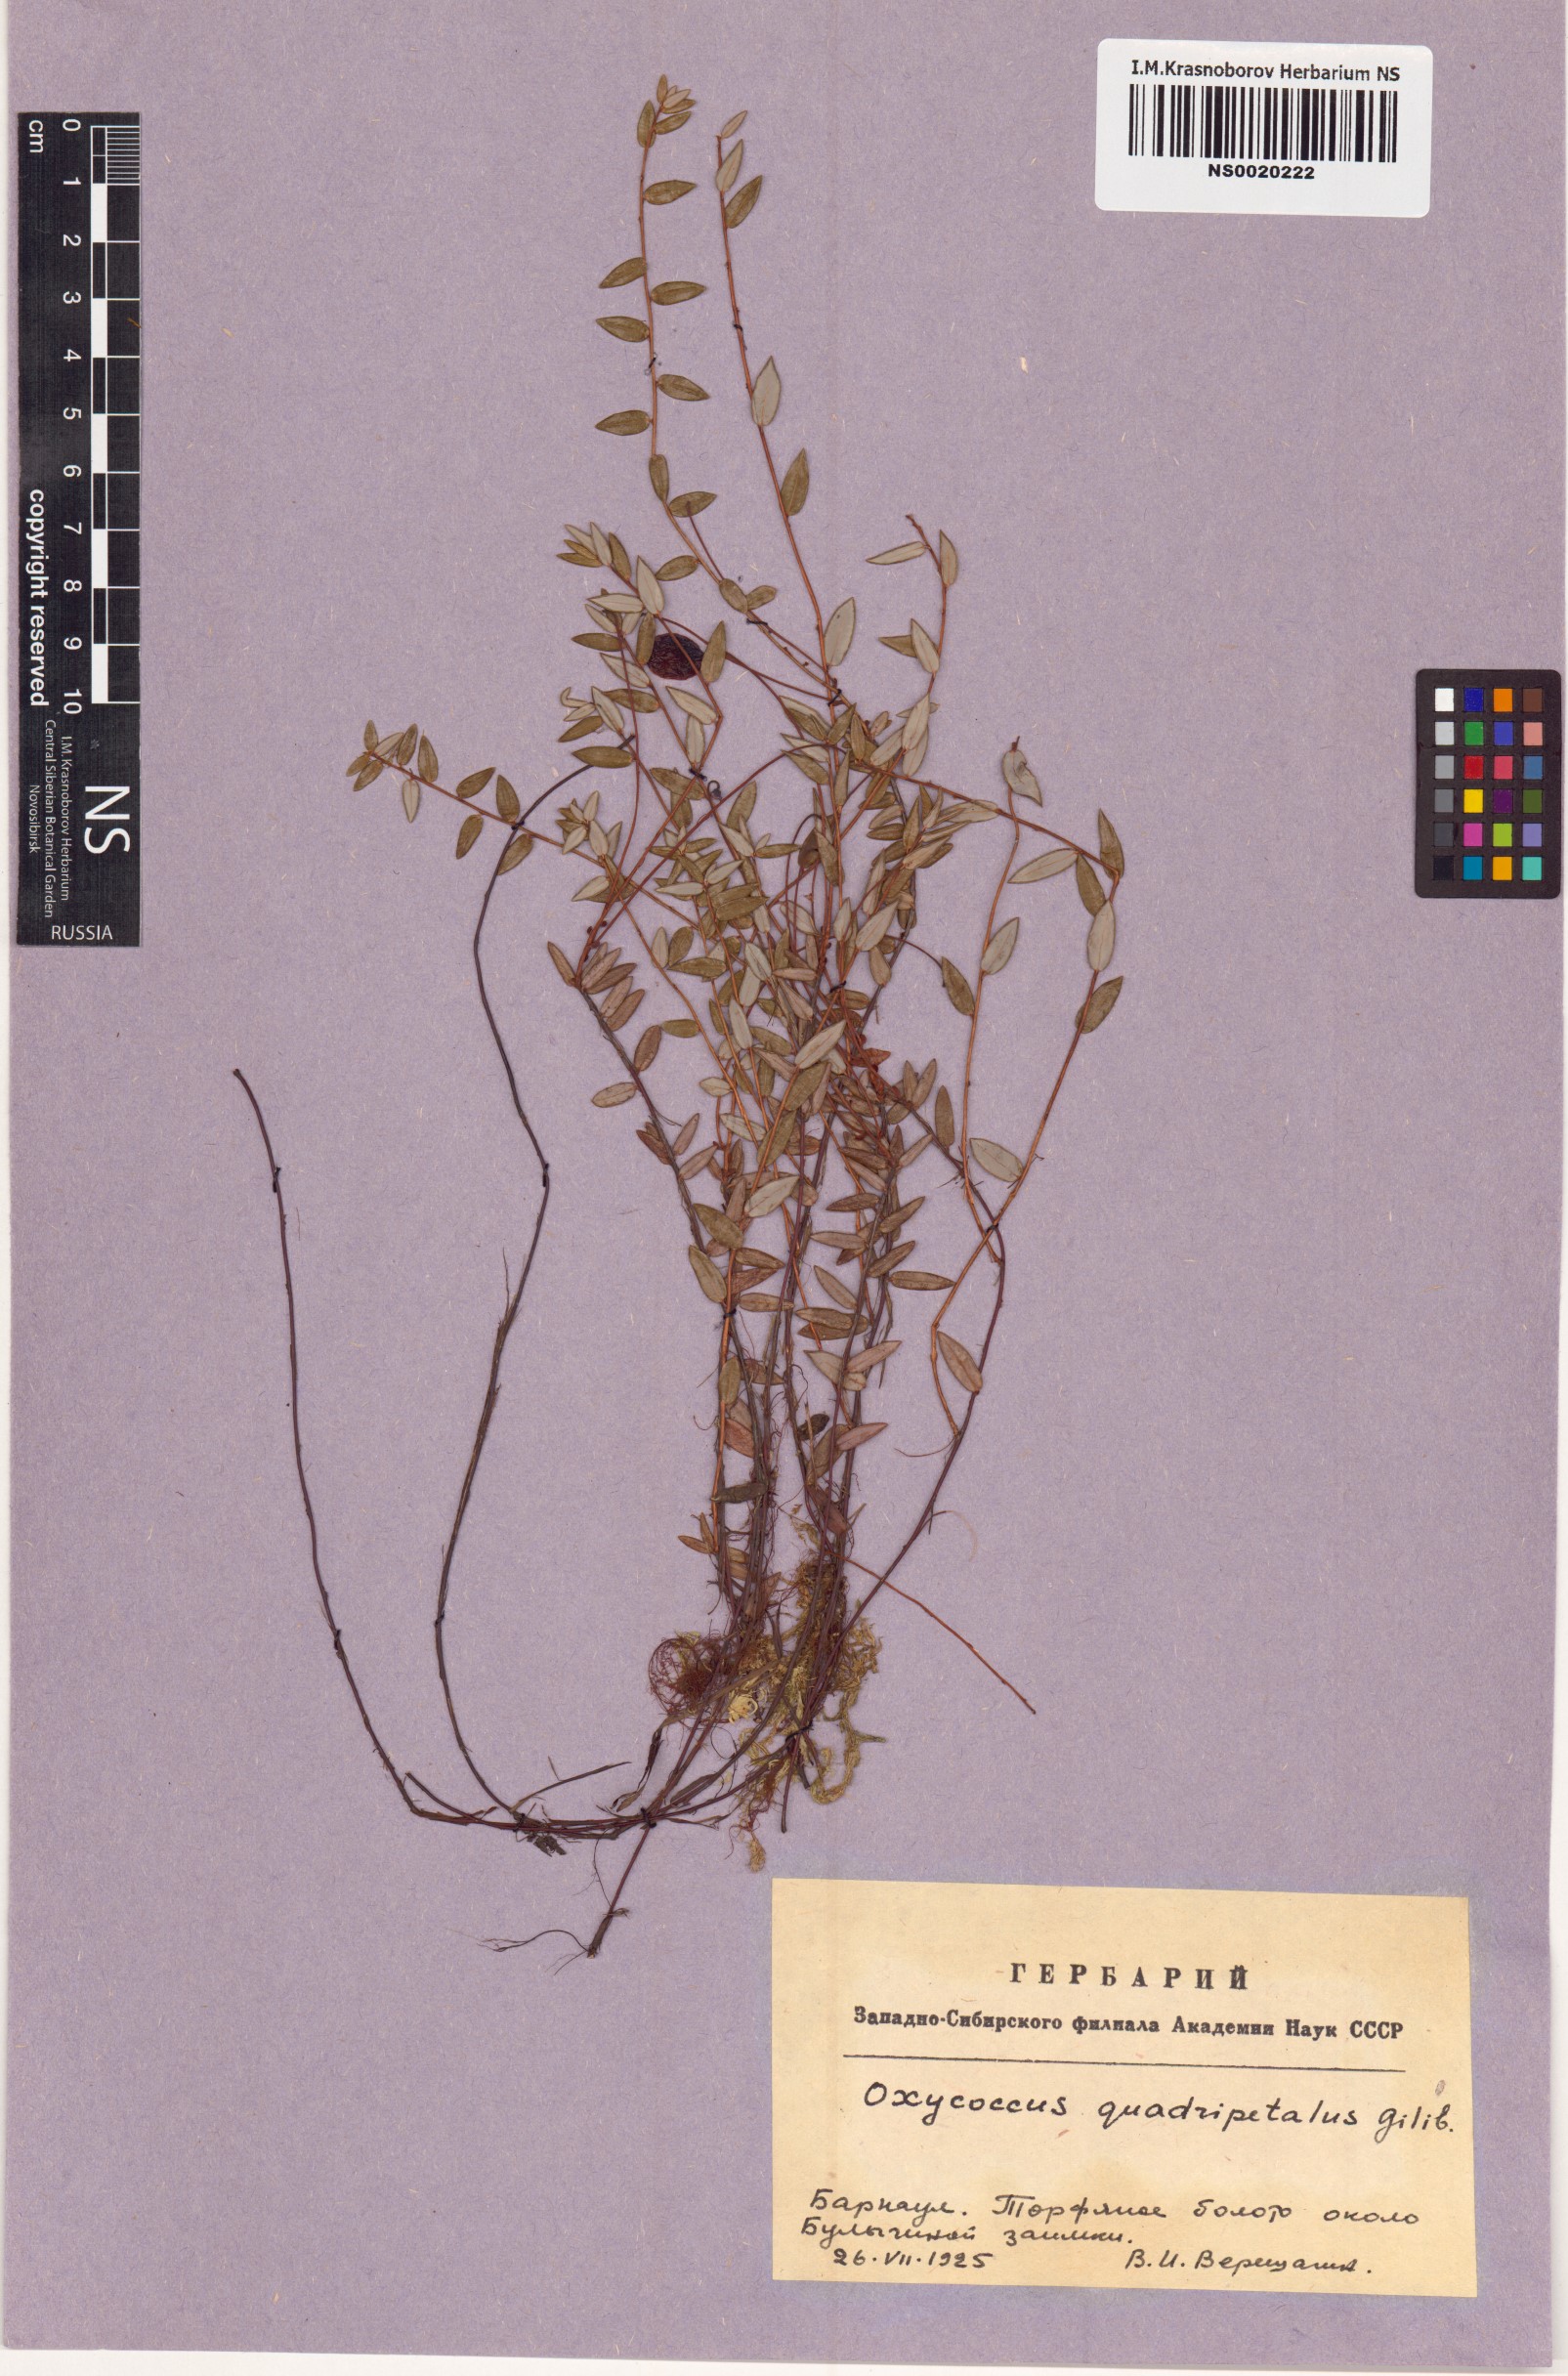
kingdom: Plantae
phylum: Tracheophyta
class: Magnoliopsida
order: Ericales
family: Ericaceae
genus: Vaccinium
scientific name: Vaccinium oxycoccos
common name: Cranberry
